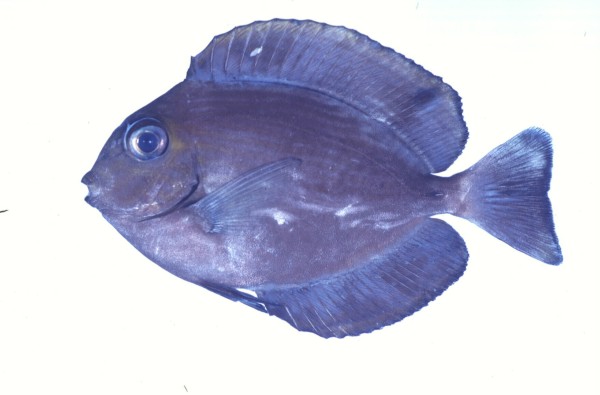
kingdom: Animalia
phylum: Chordata
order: Perciformes
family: Acanthuridae
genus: Acanthurus
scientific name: Acanthurus mata
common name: Bleeker's surgeonfish
